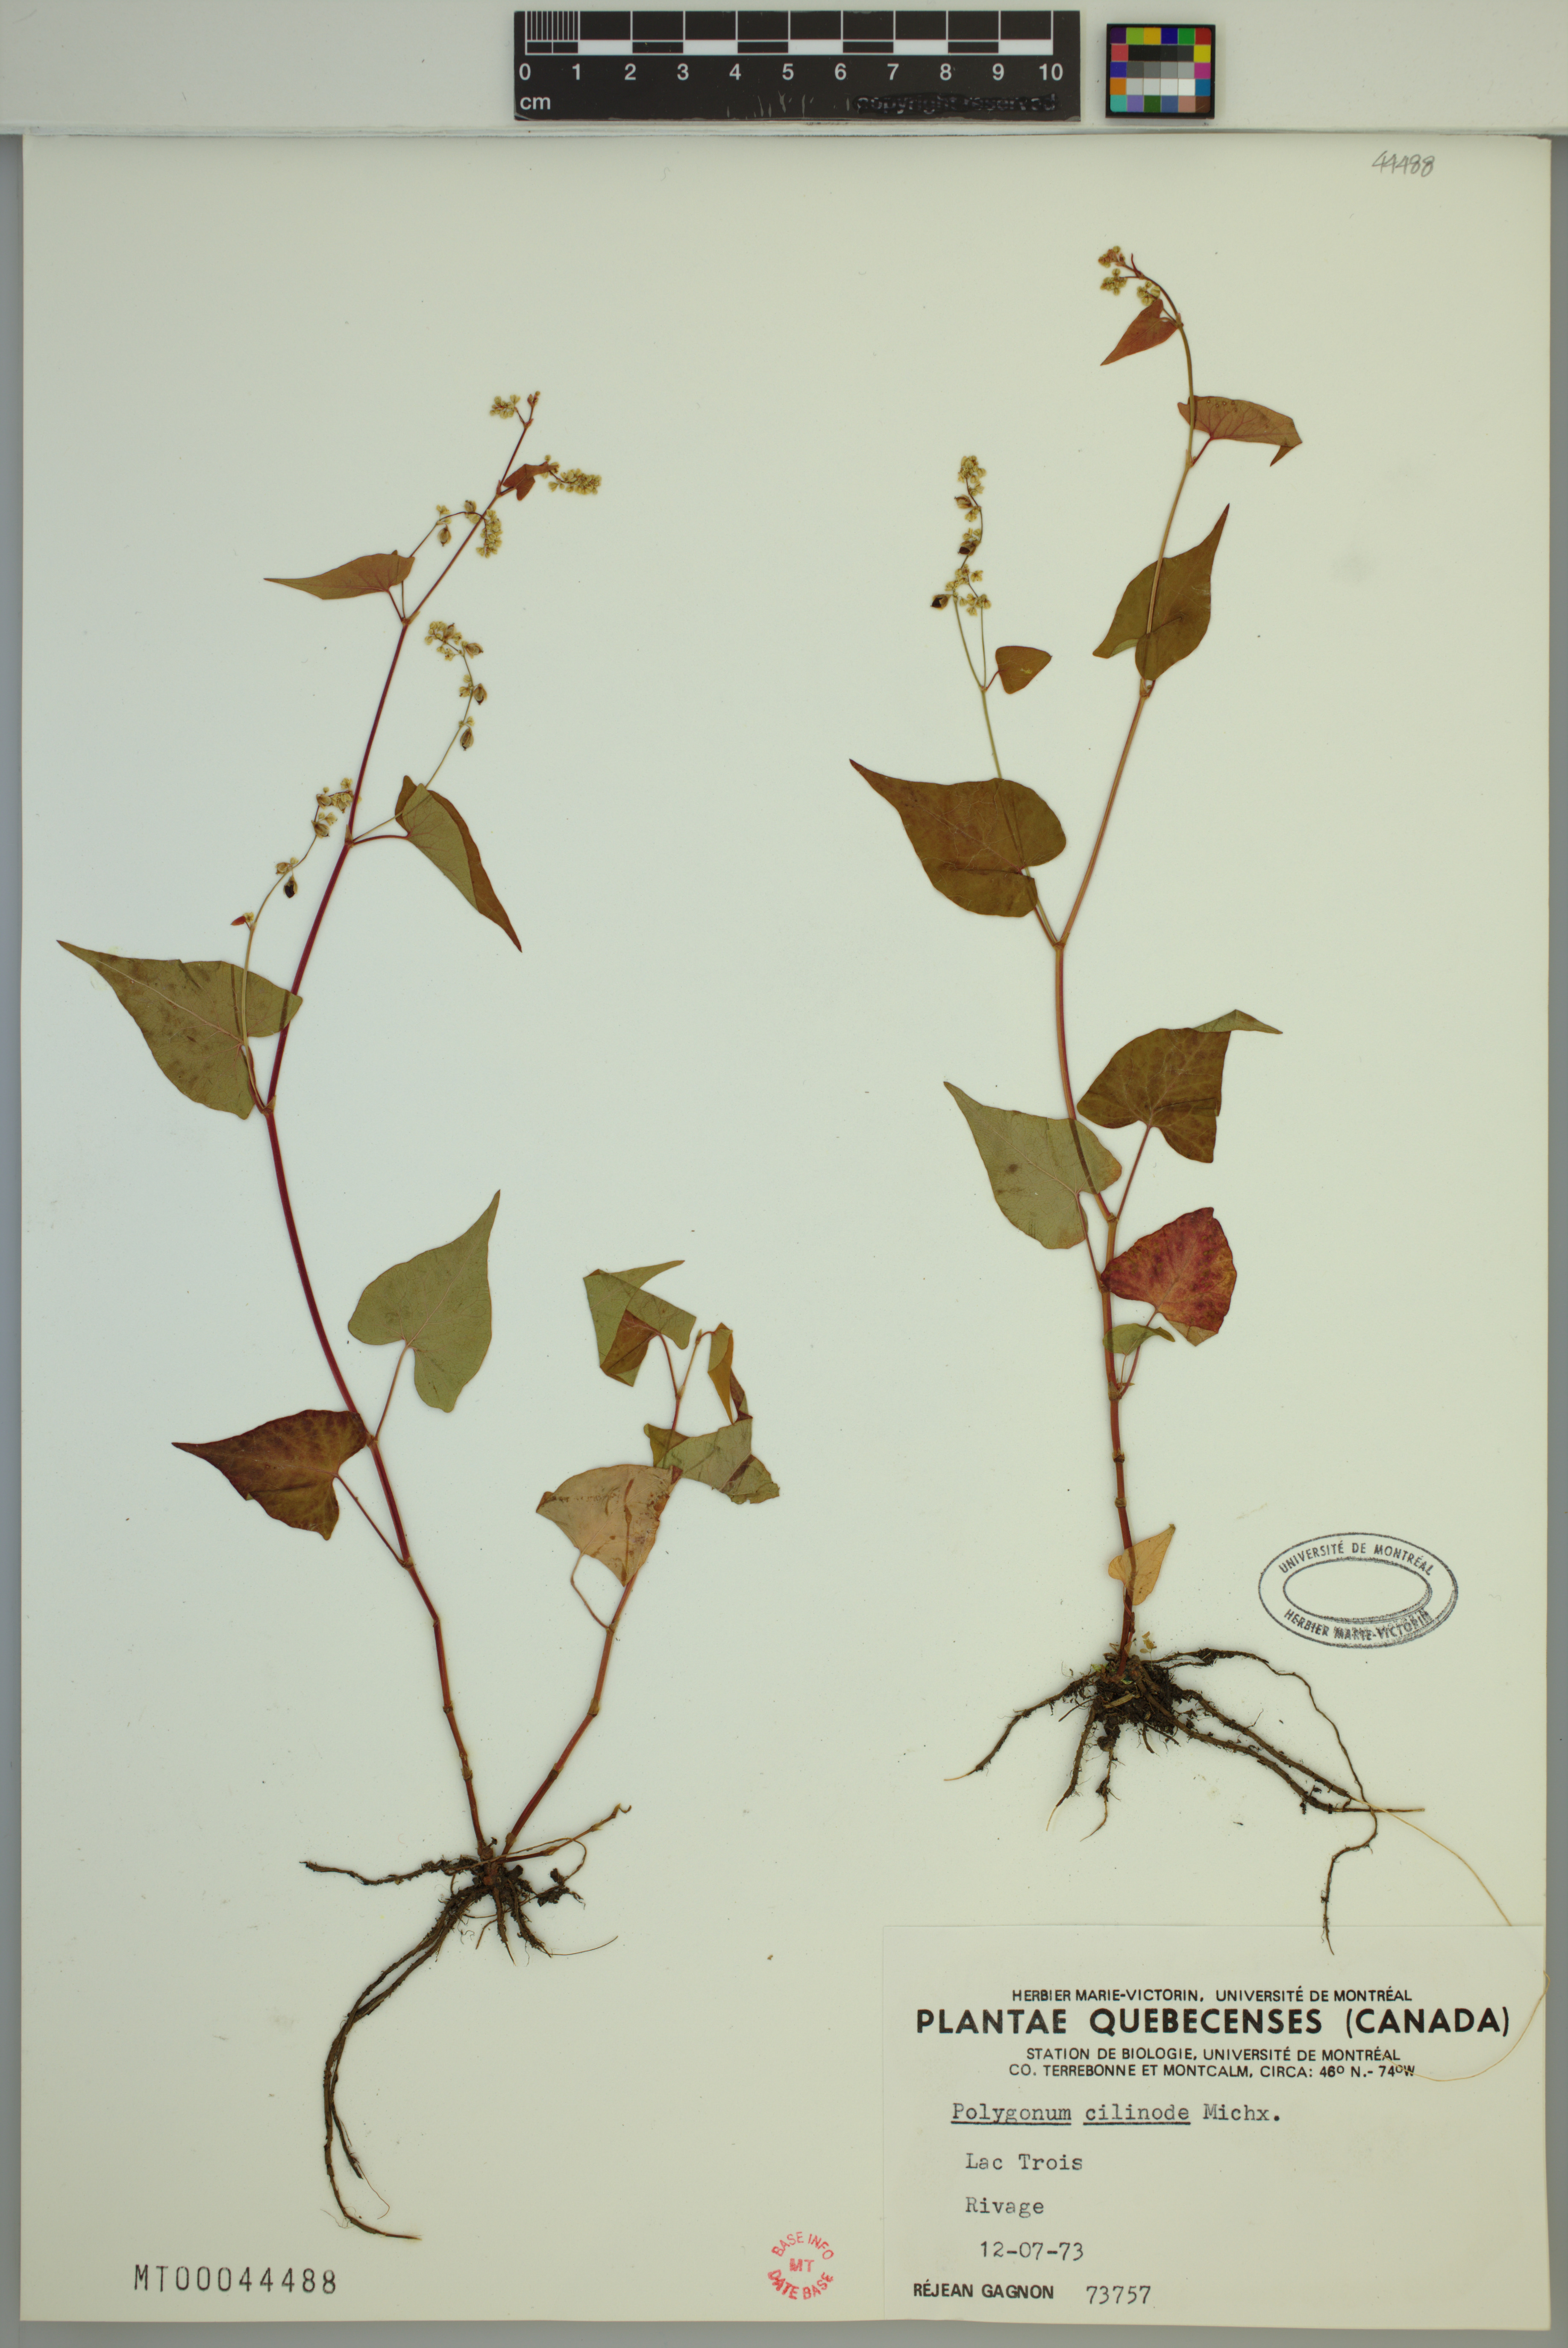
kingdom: Plantae
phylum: Tracheophyta
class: Magnoliopsida
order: Caryophyllales
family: Polygonaceae
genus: Parogonum
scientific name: Parogonum ciliinode
